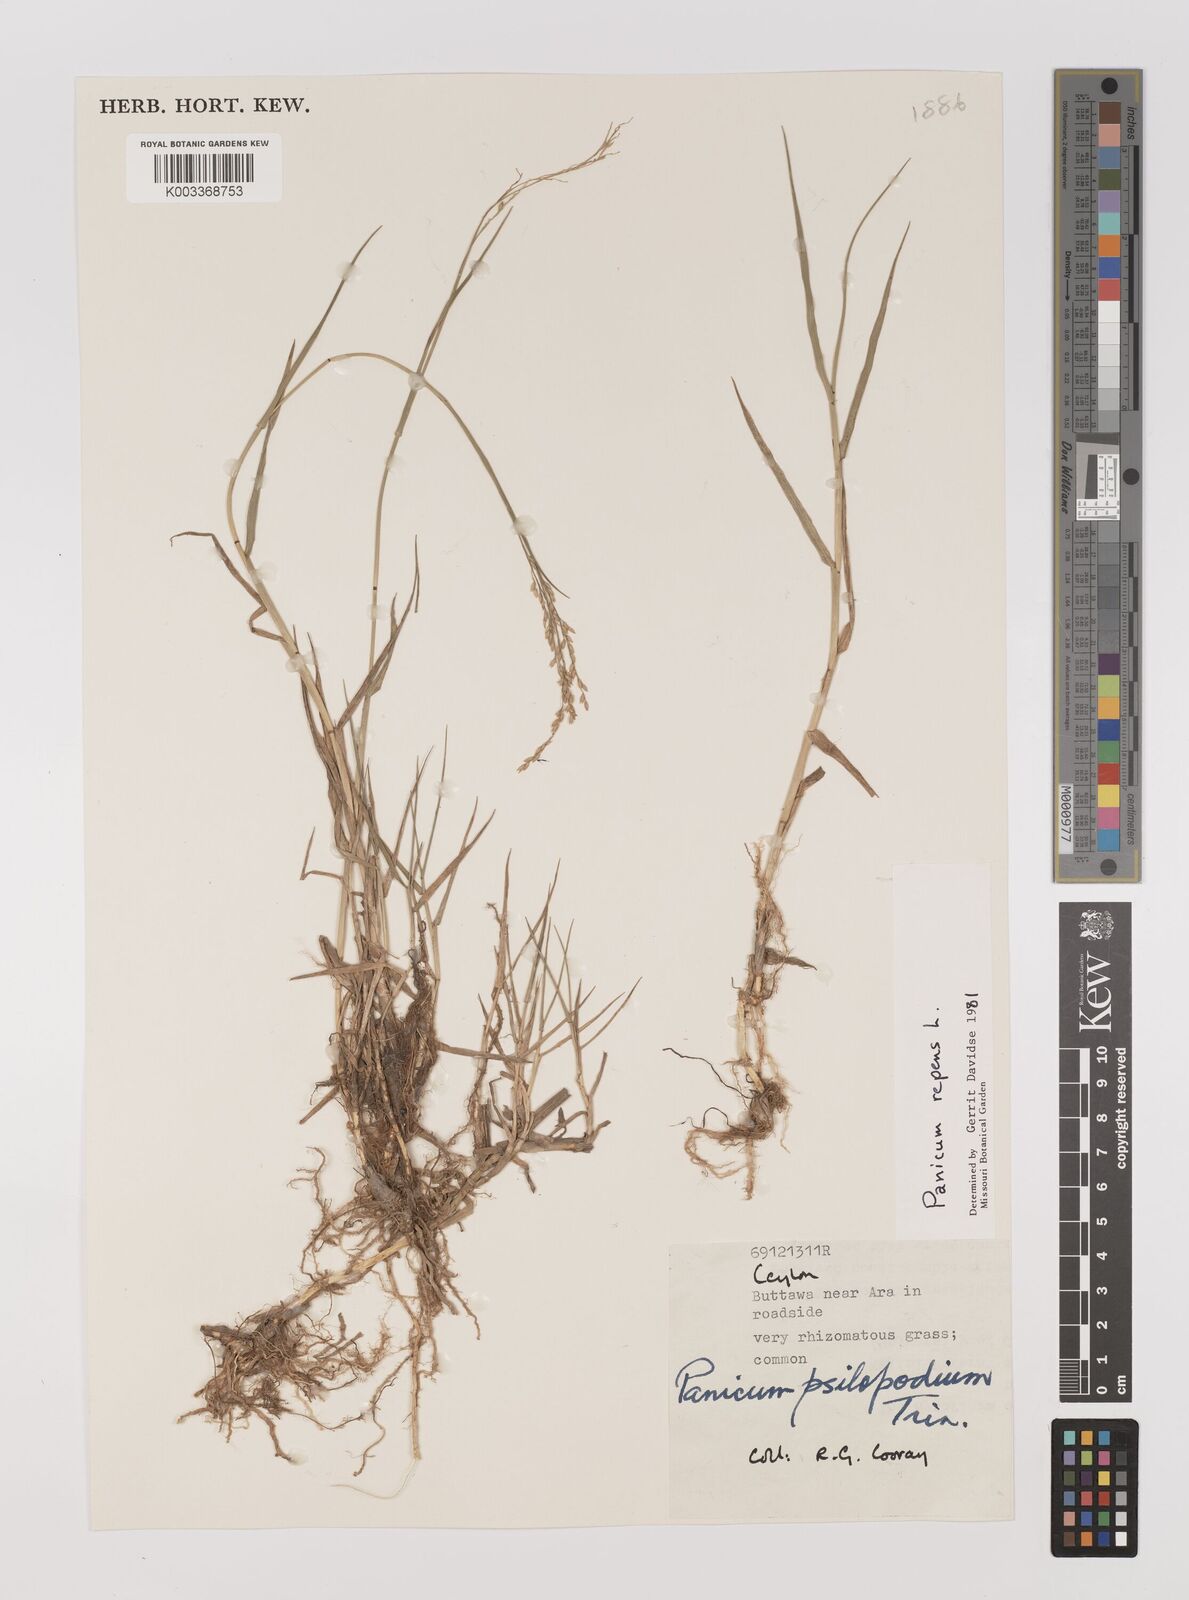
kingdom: Plantae
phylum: Tracheophyta
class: Liliopsida
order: Poales
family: Poaceae
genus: Panicum
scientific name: Panicum repens
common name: Torpedo grass
